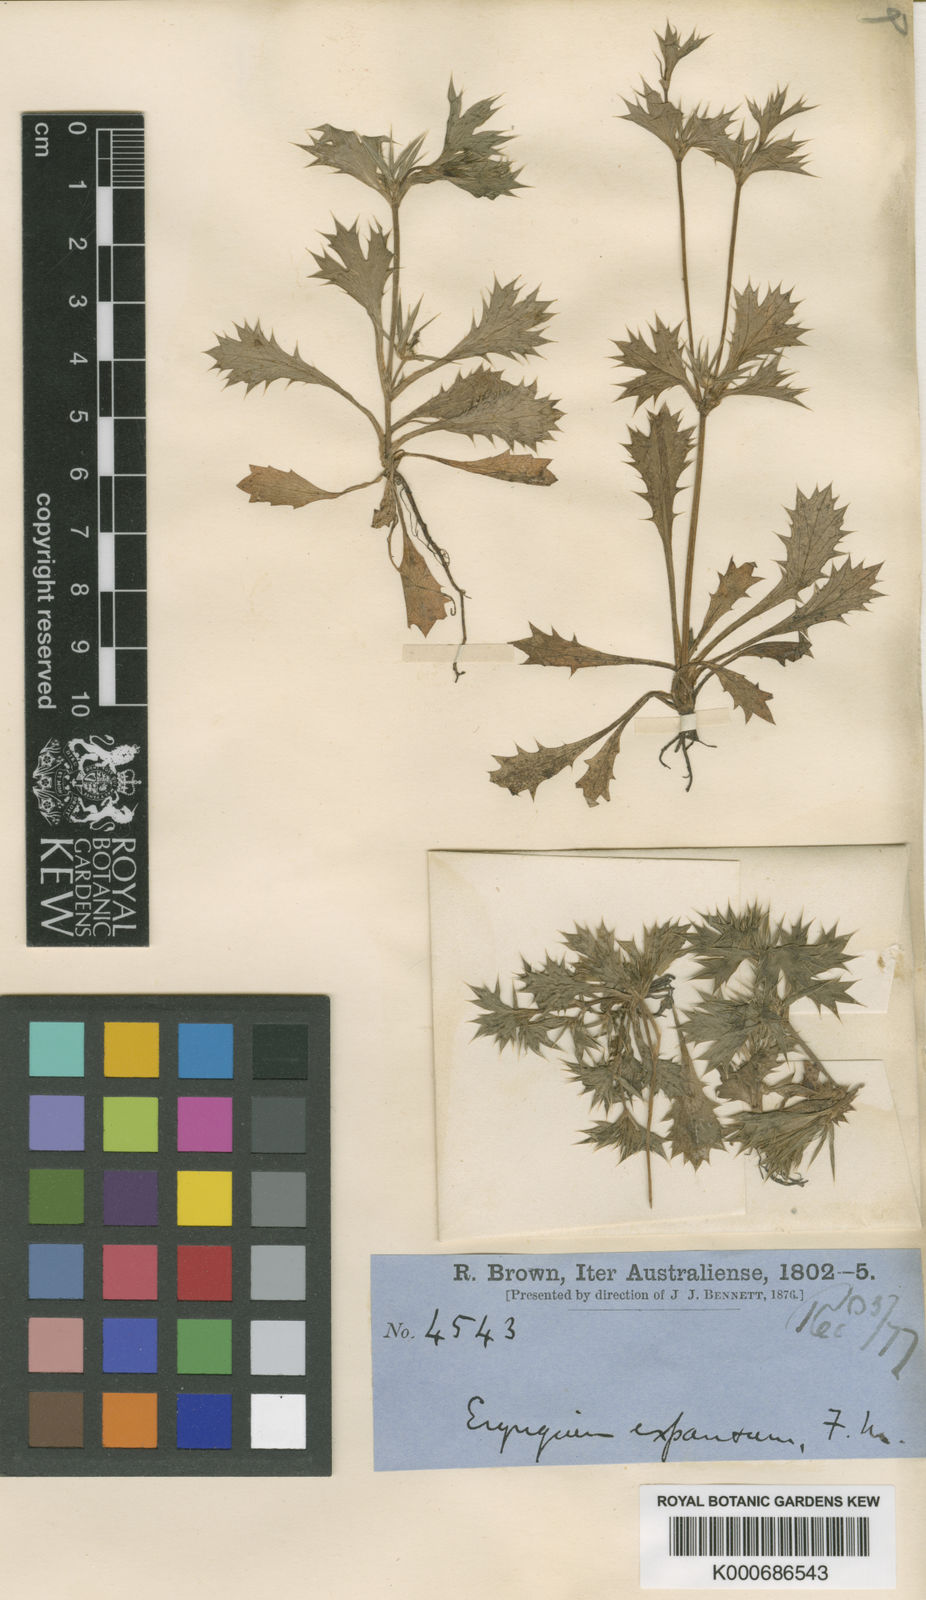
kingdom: Plantae
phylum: Tracheophyta
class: Magnoliopsida
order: Apiales
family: Apiaceae
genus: Eryngium
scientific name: Eryngium expansum
